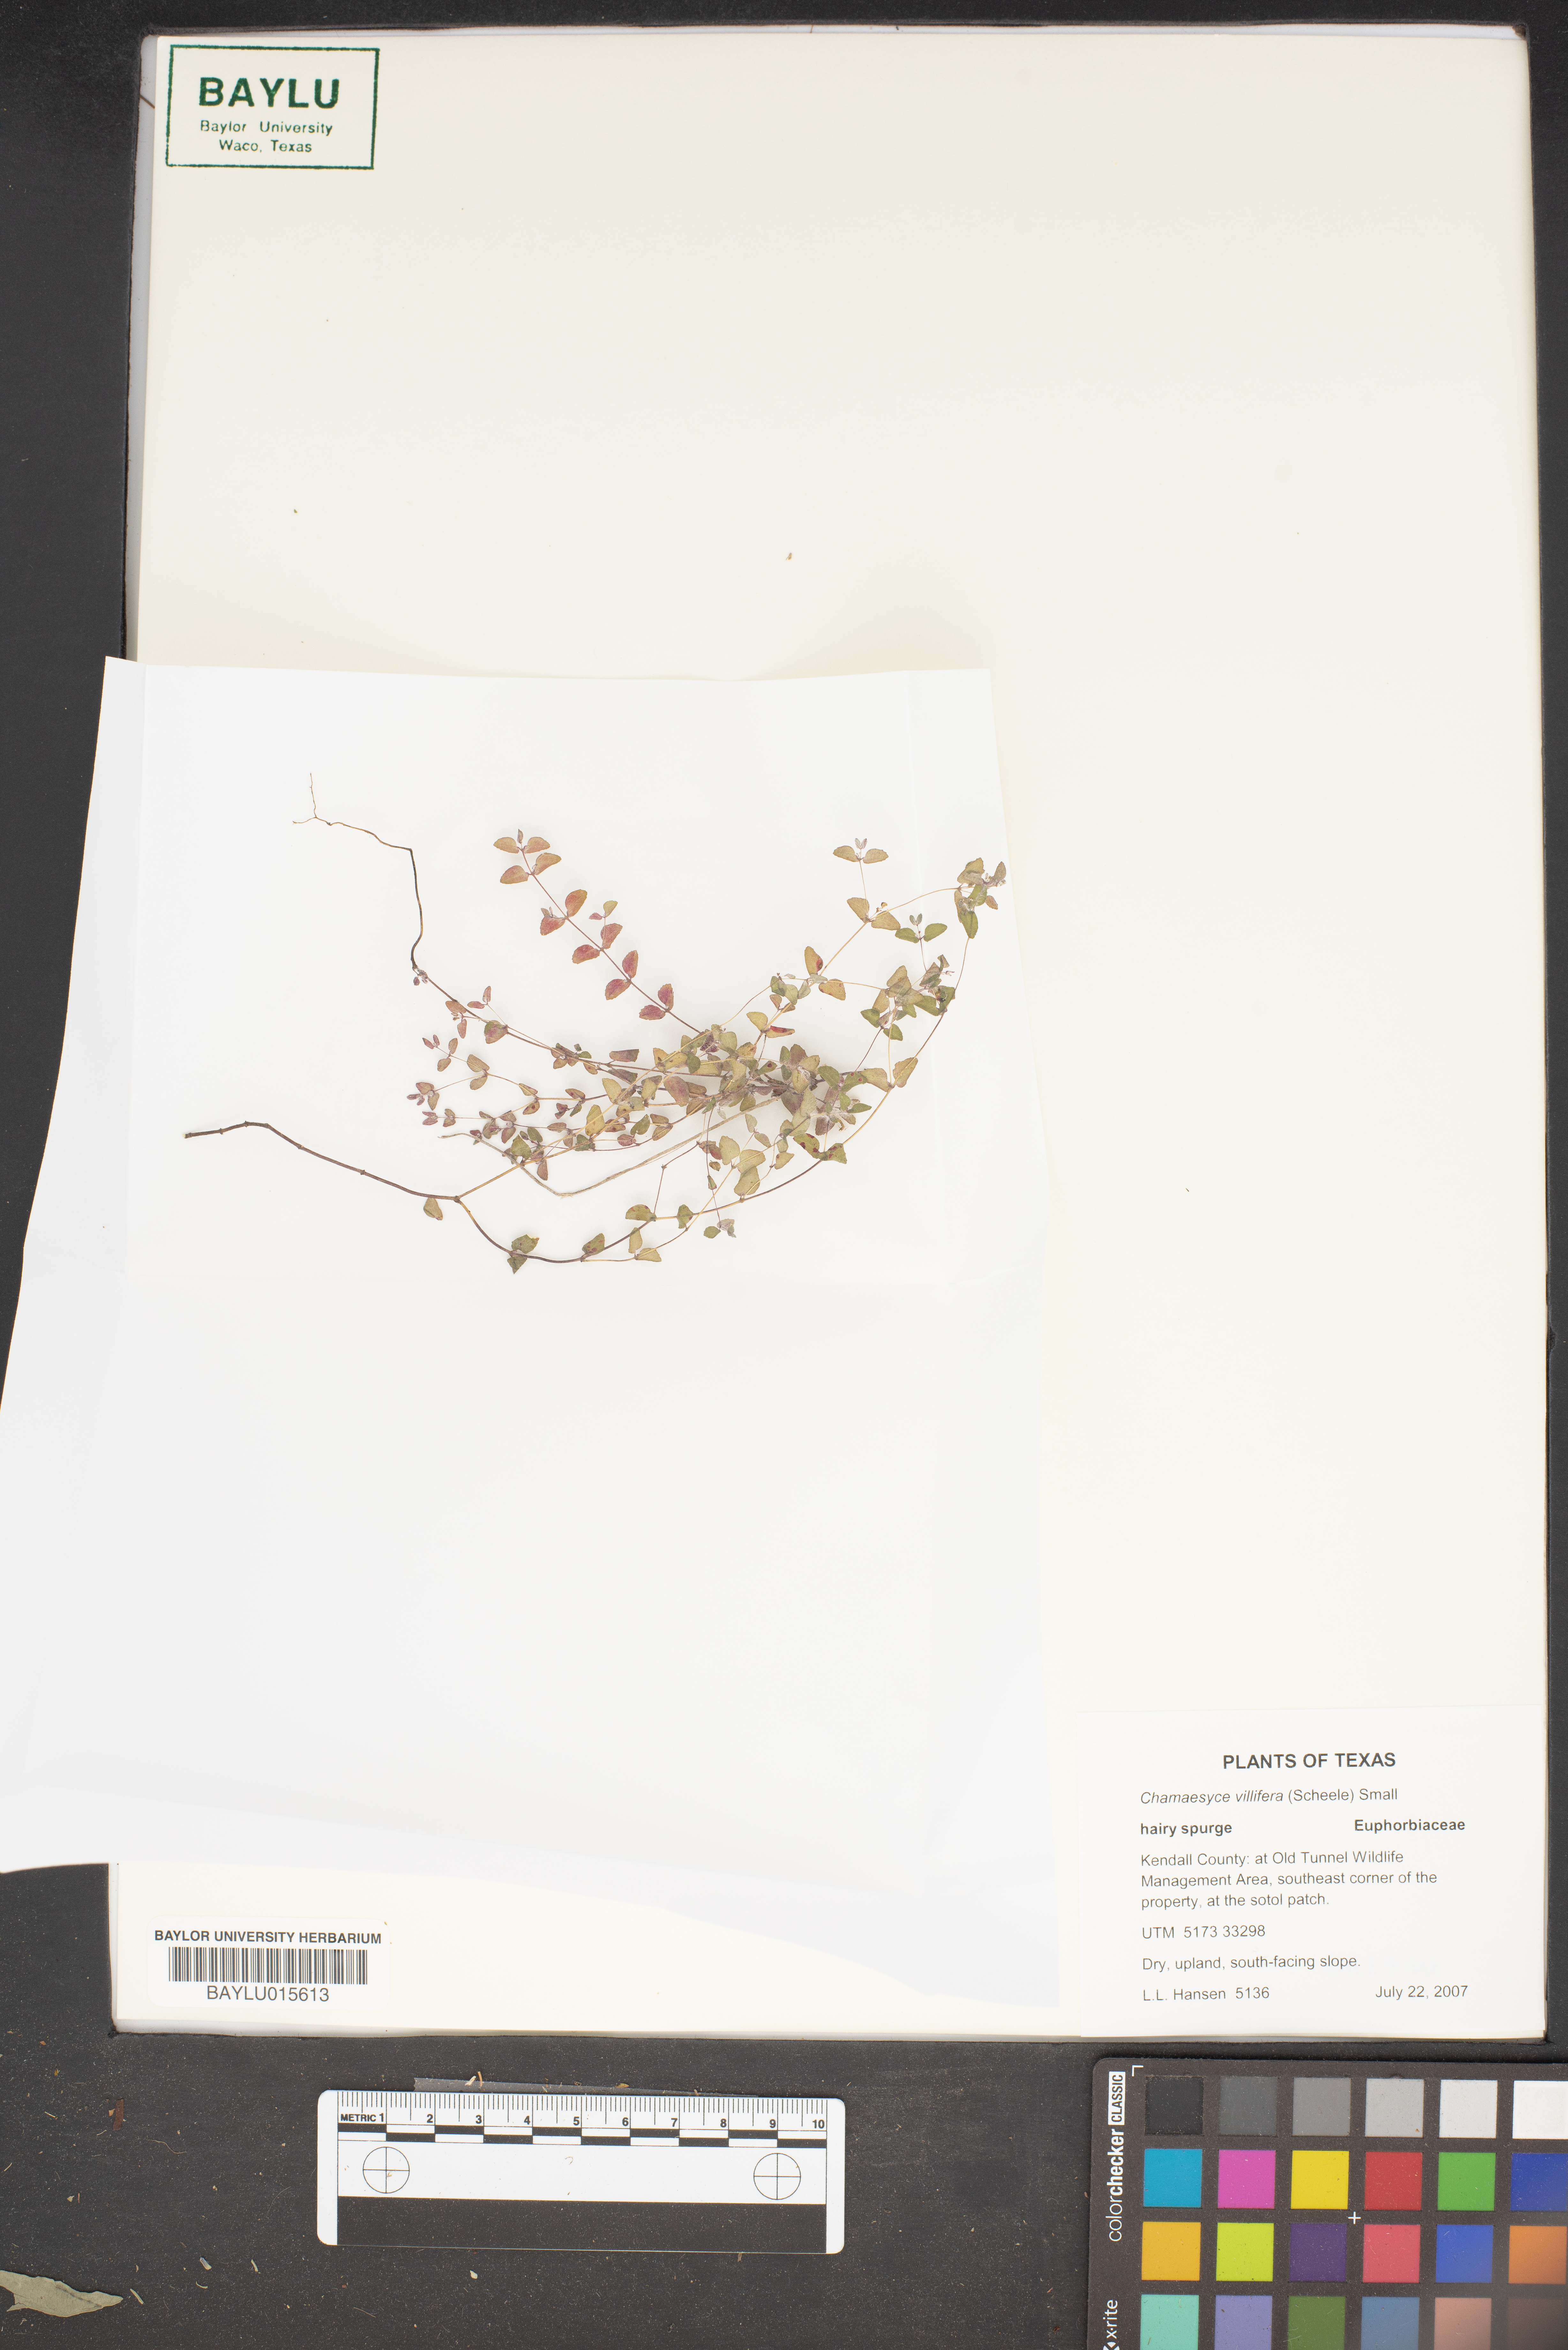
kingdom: Plantae
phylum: Tracheophyta
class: Magnoliopsida
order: Malpighiales
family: Euphorbiaceae
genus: Euphorbia
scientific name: Euphorbia villifera
